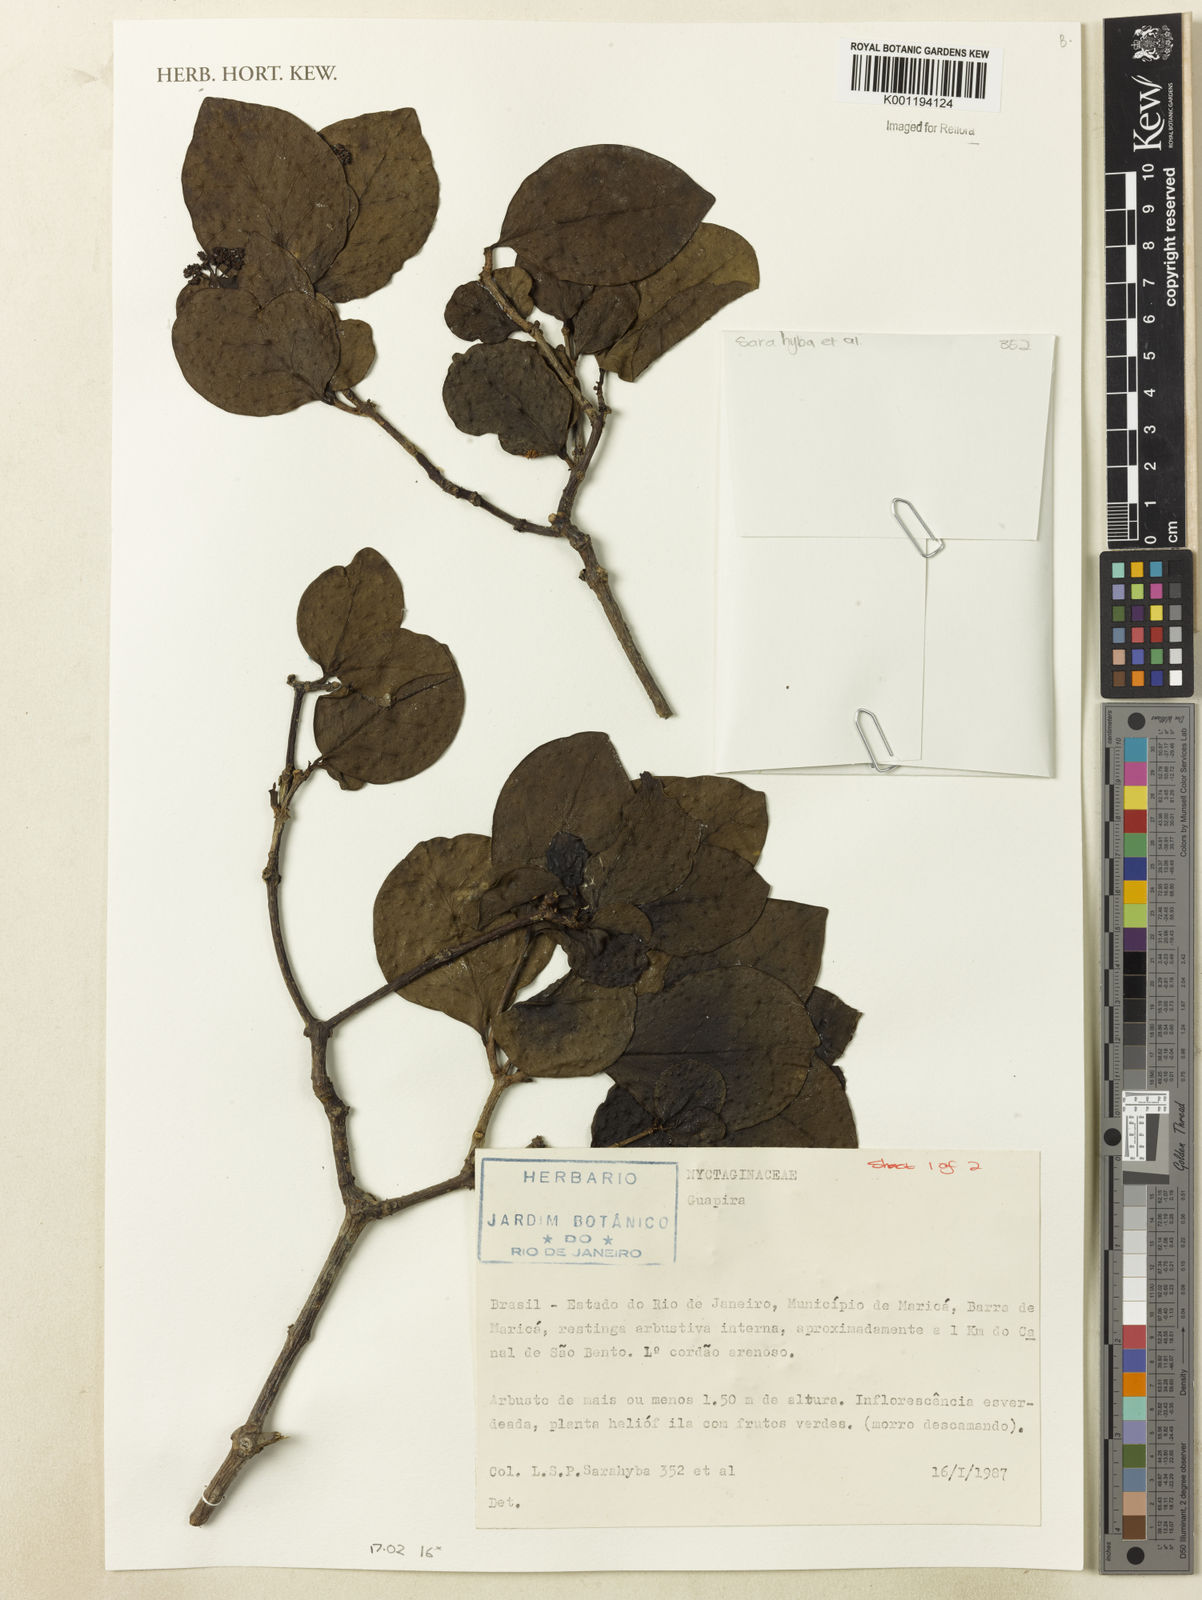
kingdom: Plantae
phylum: Tracheophyta
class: Magnoliopsida
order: Caryophyllales
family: Nyctaginaceae
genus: Guapira
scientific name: Guapira
